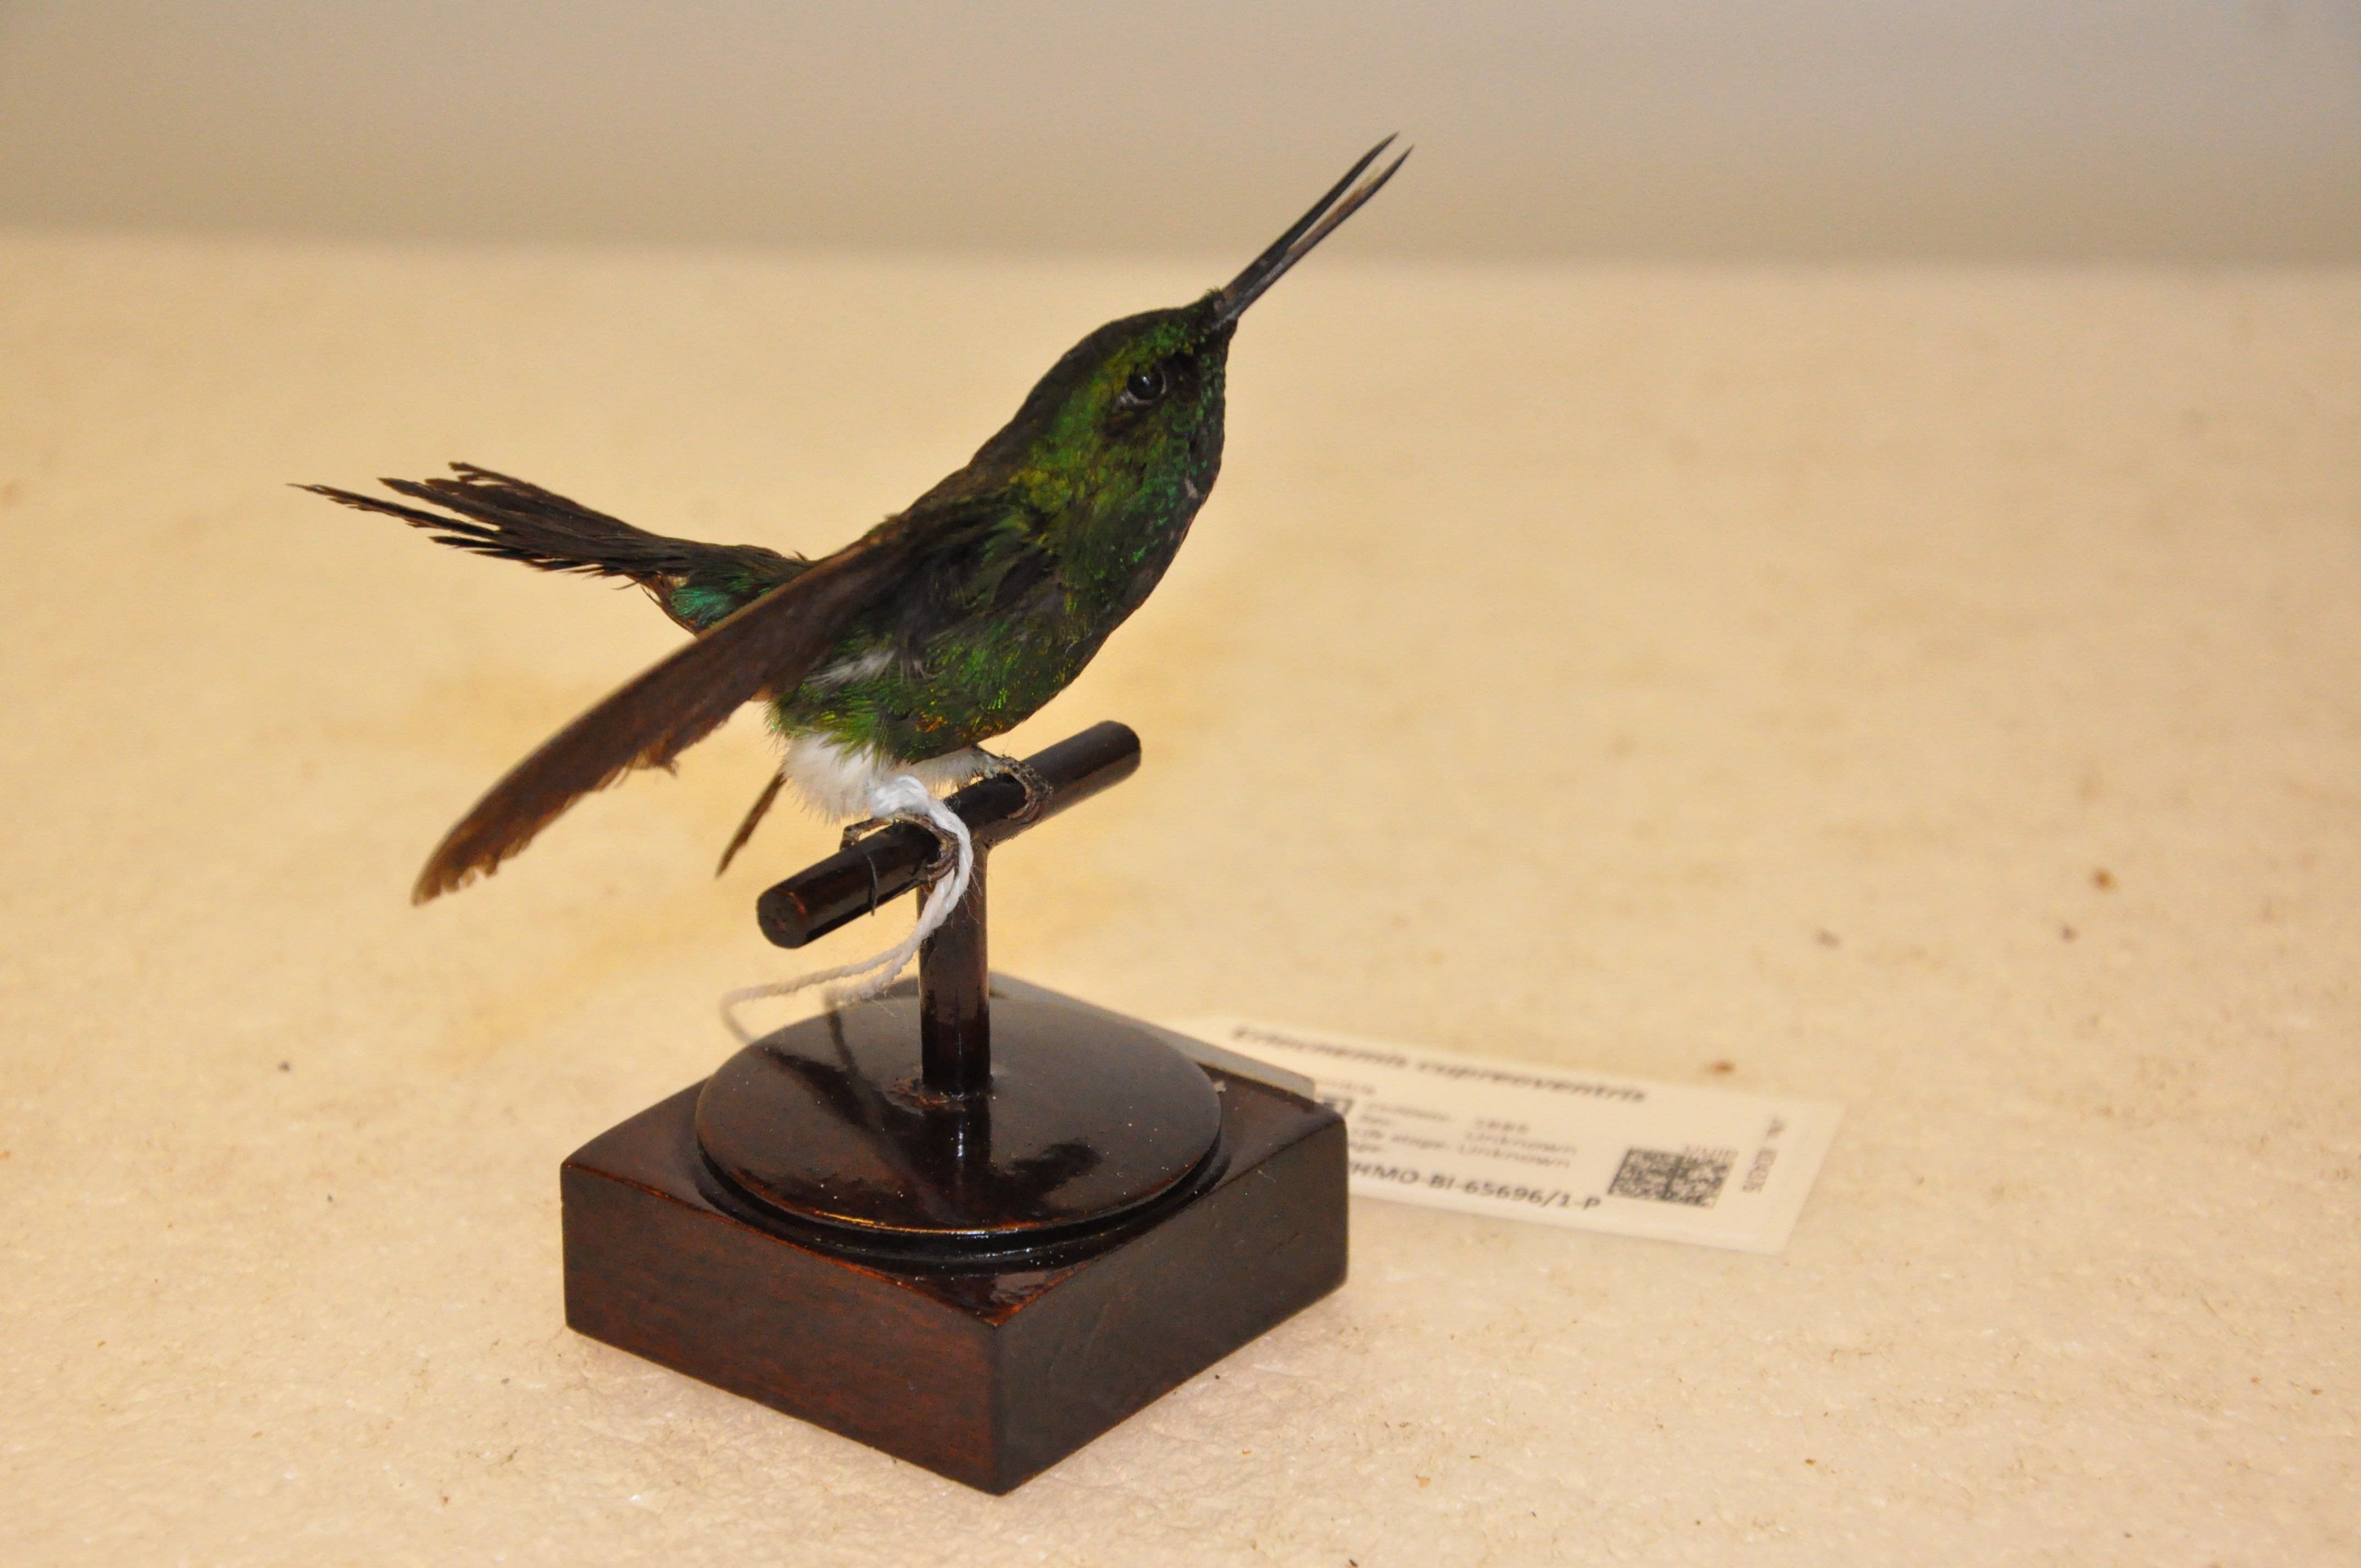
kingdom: Animalia
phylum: Chordata
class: Aves
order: Apodiformes
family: Trochilidae
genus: Eriocnemis
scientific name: Eriocnemis cupreoventris
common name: Coppery-bellied puffleg
